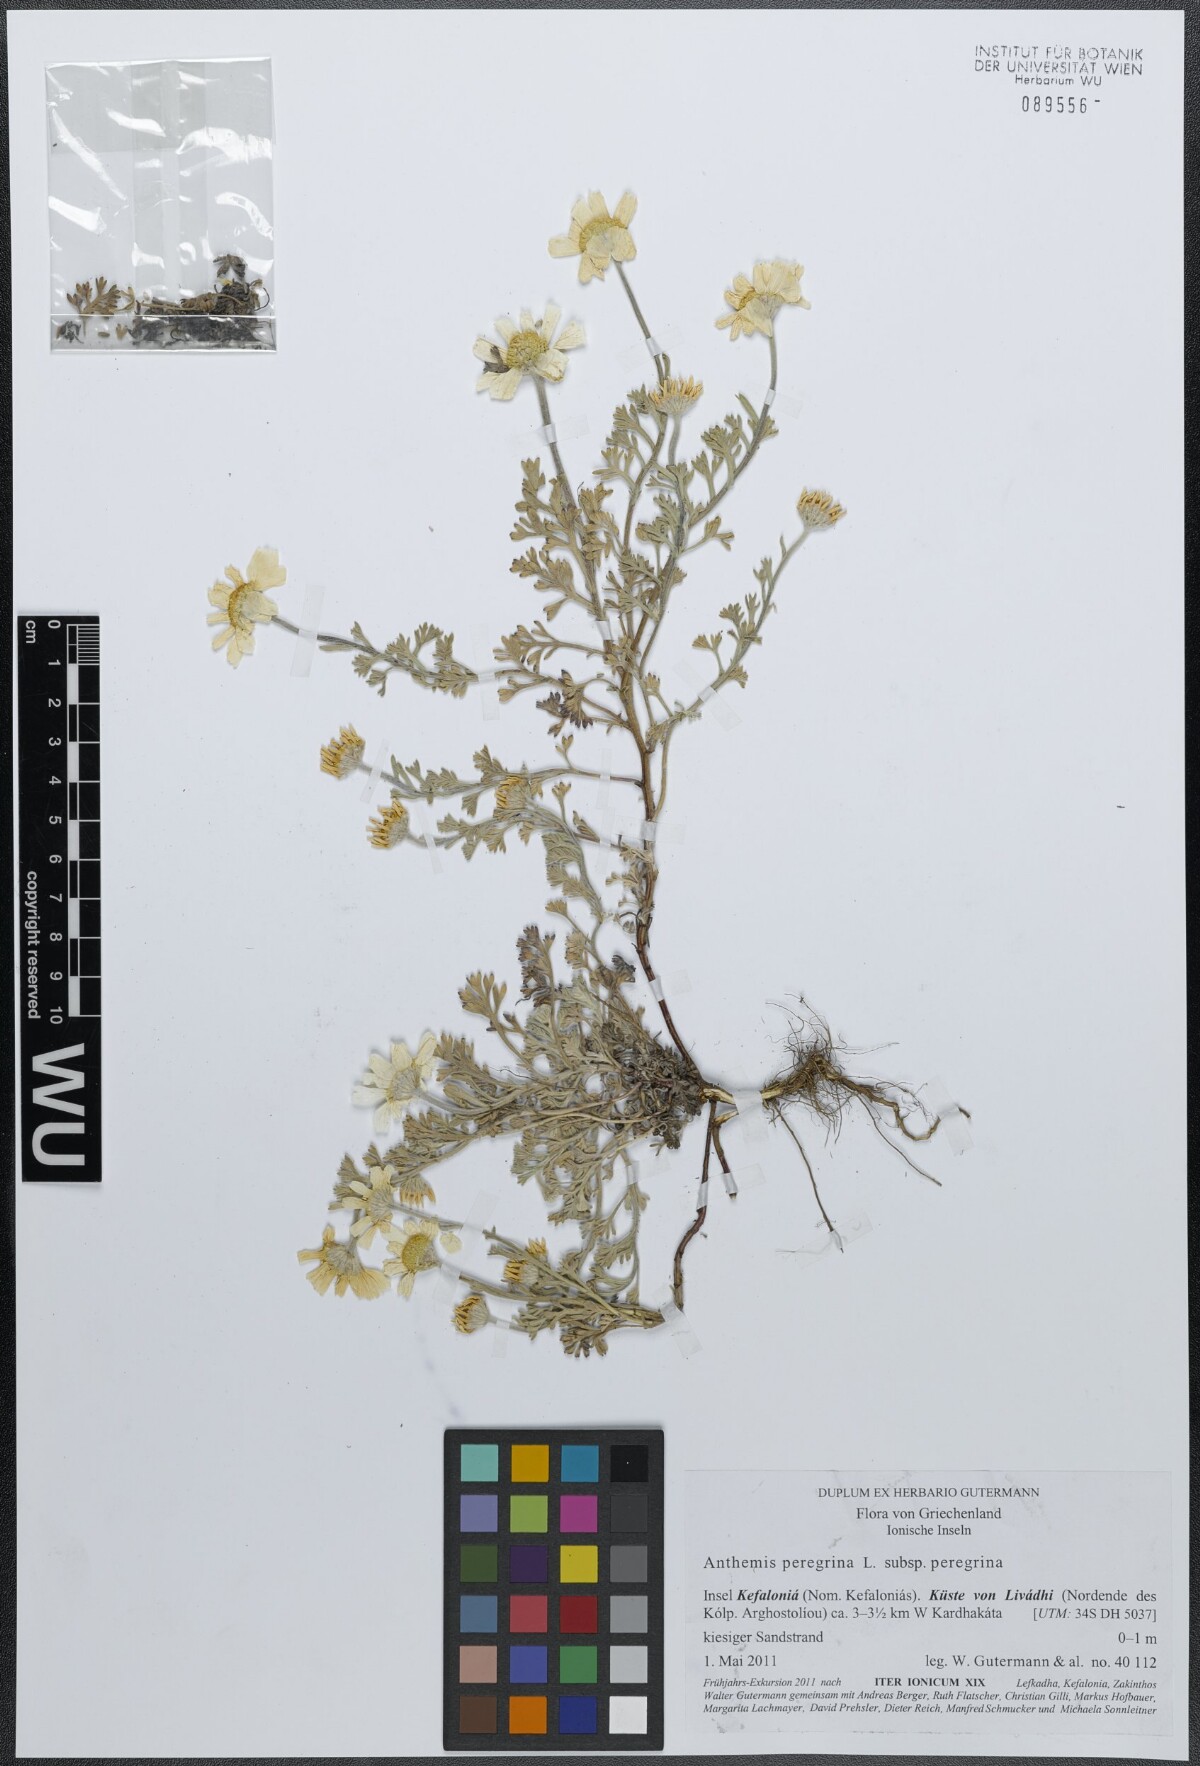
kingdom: Plantae
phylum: Tracheophyta
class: Magnoliopsida
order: Asterales
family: Asteraceae
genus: Anthemis
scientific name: Anthemis tomentosa
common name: Woolly chamomile
